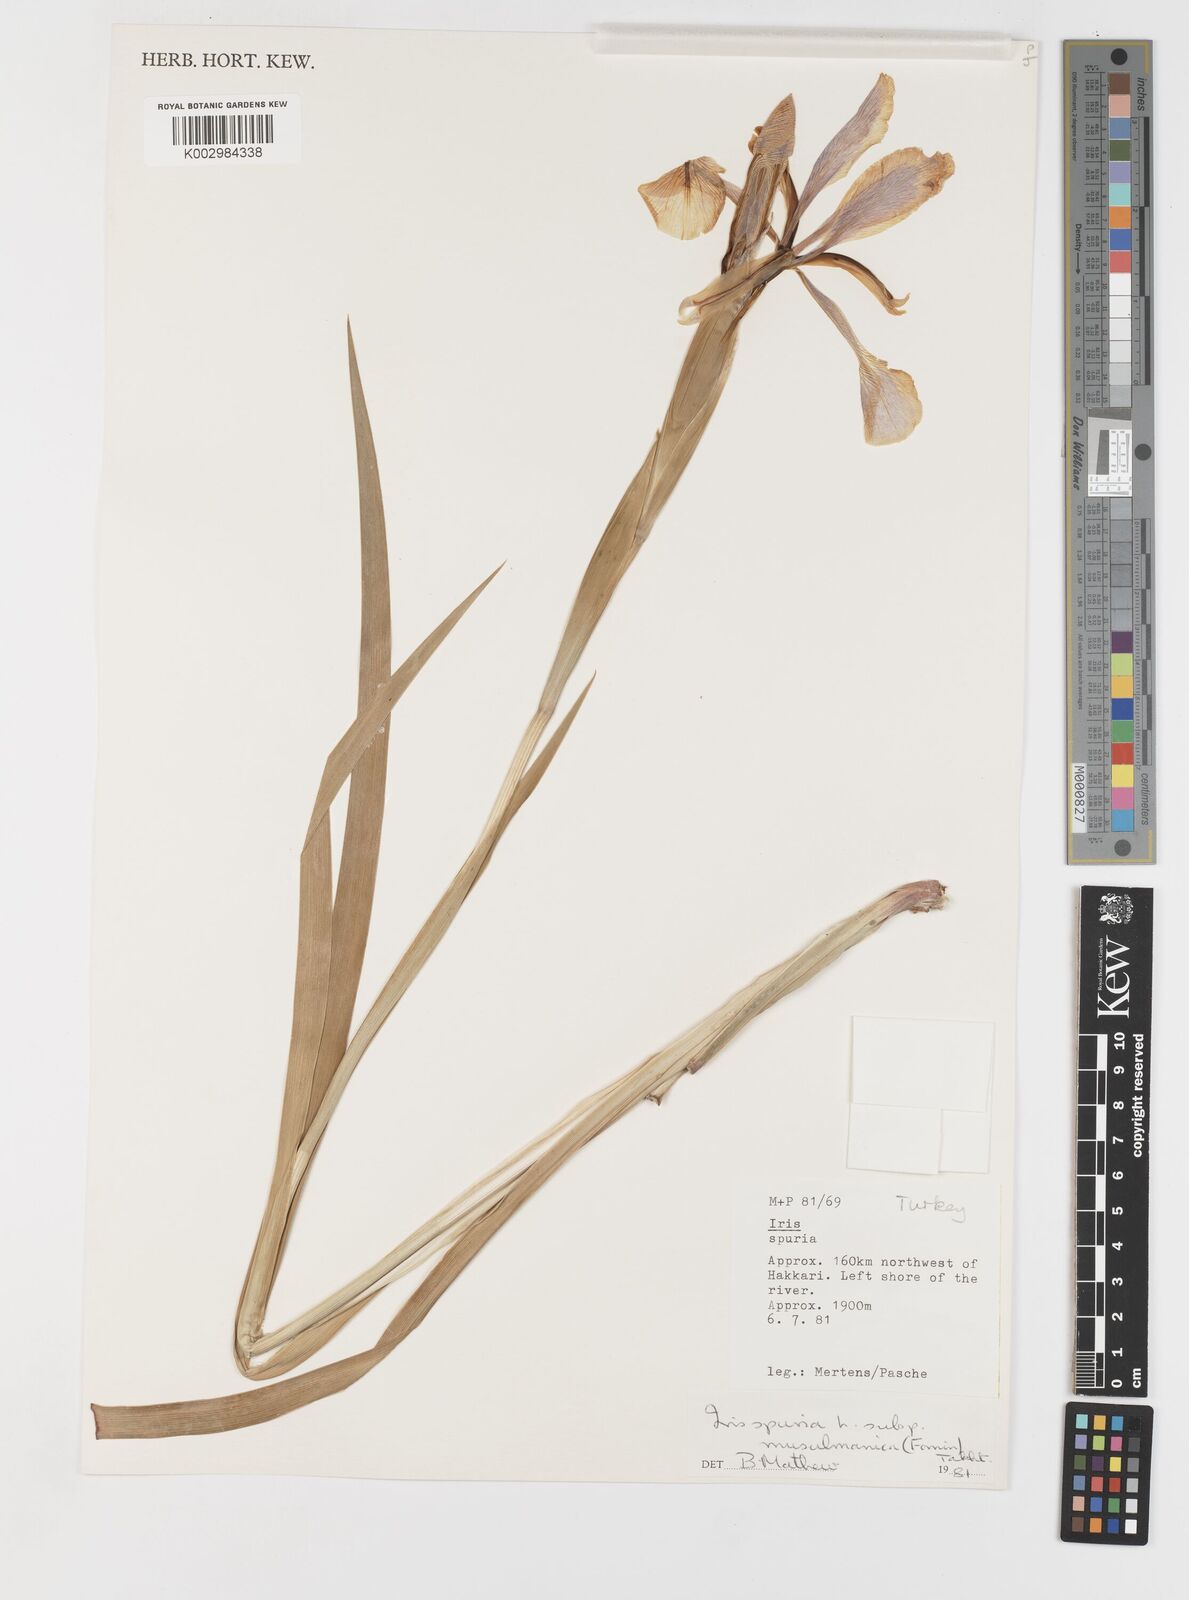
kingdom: Plantae
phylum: Tracheophyta
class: Liliopsida
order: Asparagales
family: Iridaceae
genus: Iris
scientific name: Iris spuria
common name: Blue iris
